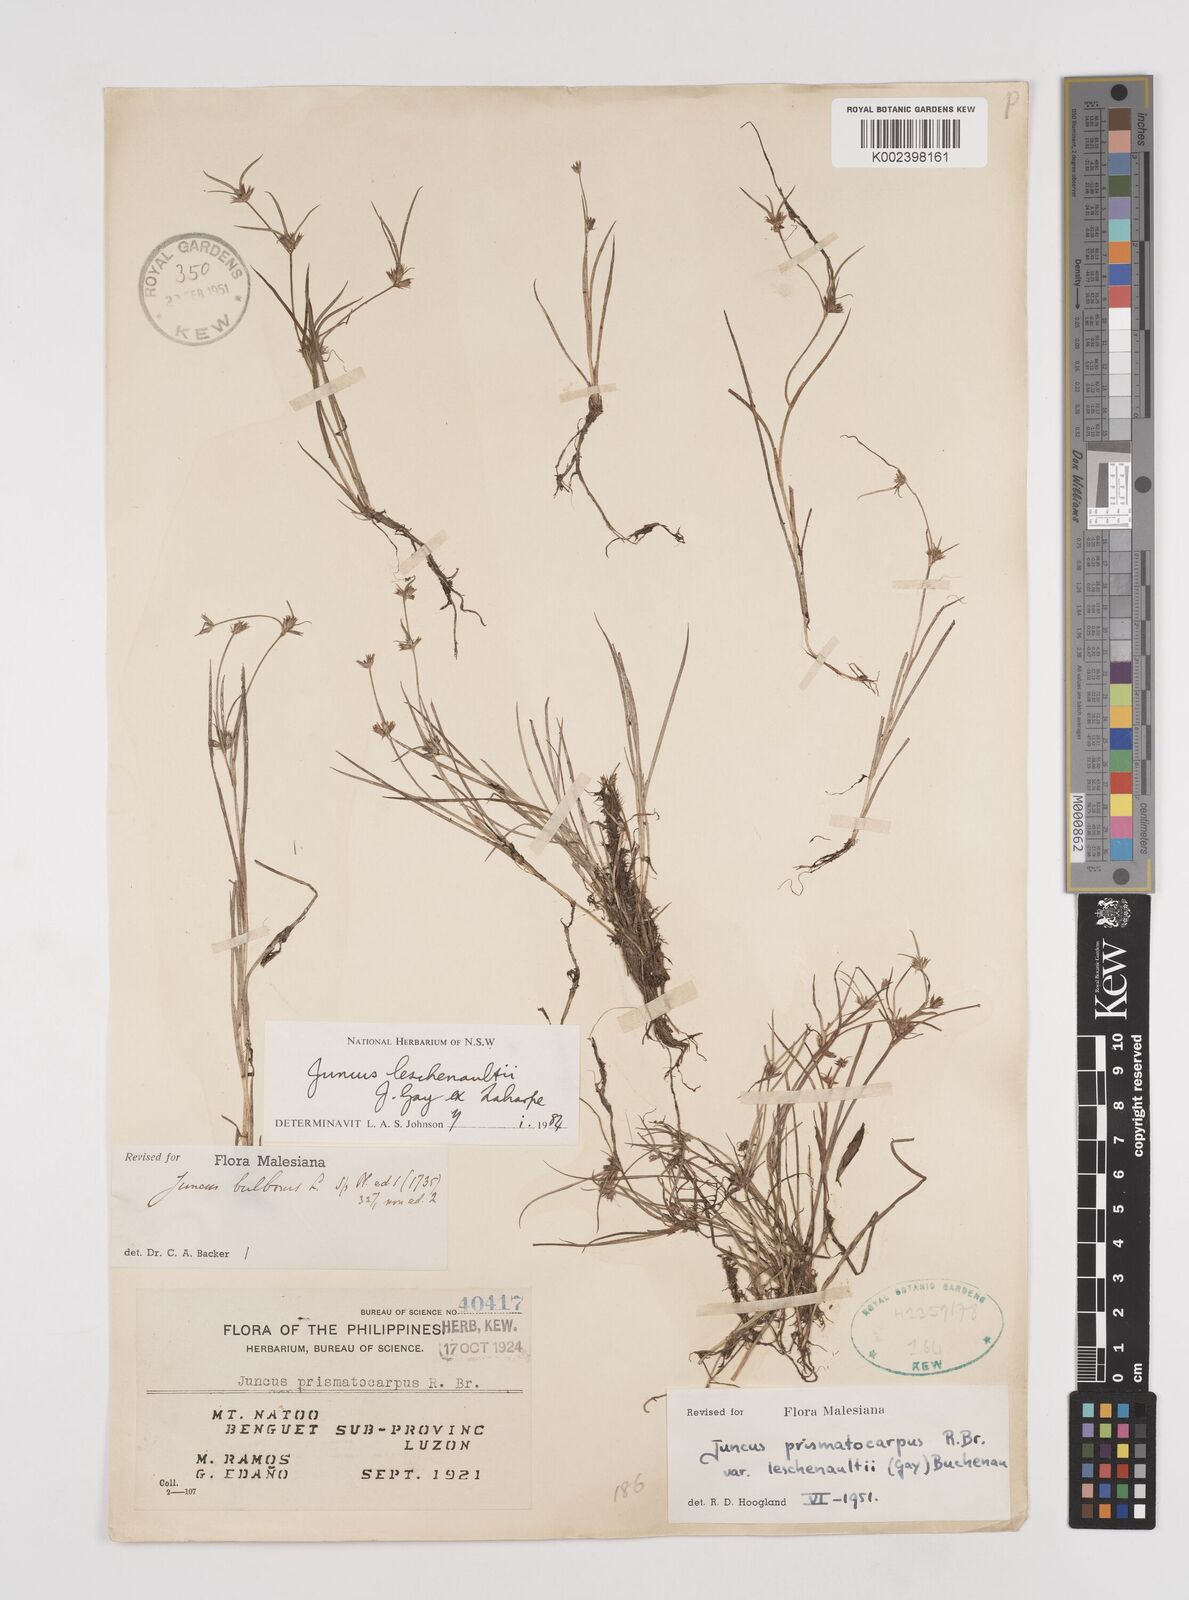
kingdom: Plantae
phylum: Tracheophyta
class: Liliopsida
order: Poales
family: Juncaceae
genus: Juncus
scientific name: Juncus prismatocarpus
